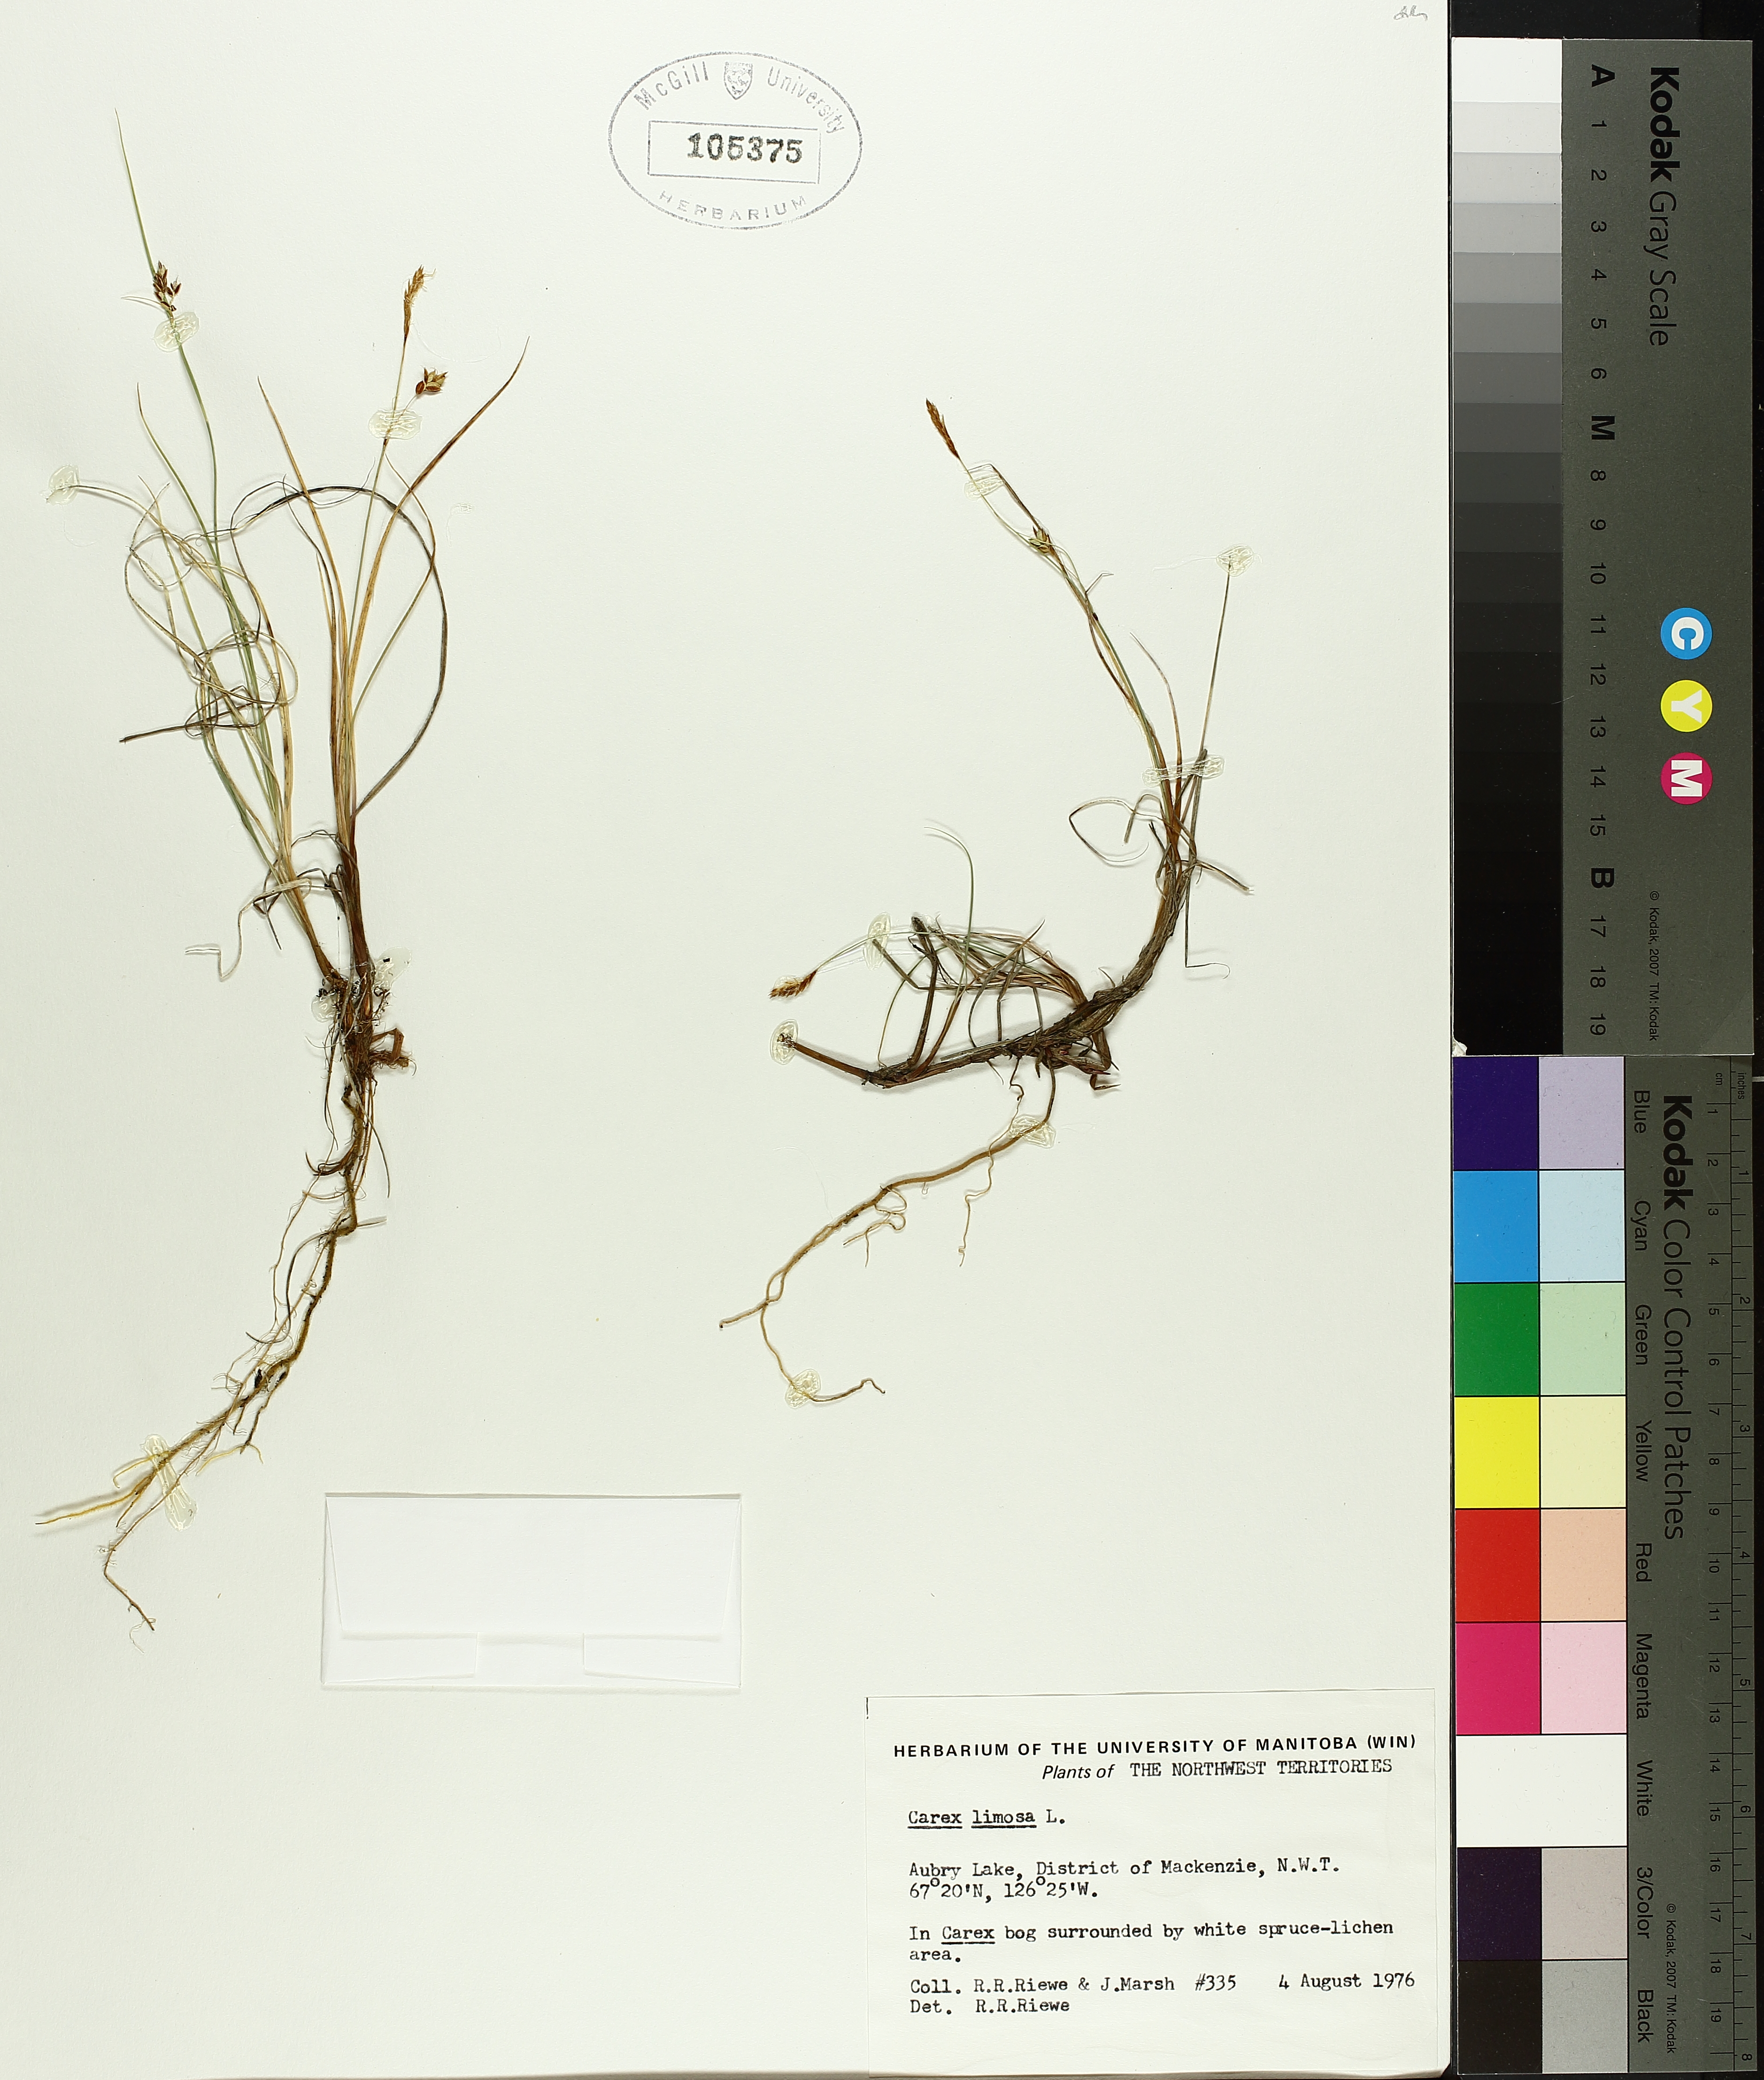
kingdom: Plantae
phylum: Tracheophyta
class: Liliopsida
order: Poales
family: Cyperaceae
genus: Carex
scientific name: Carex limosa
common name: Bog sedge
